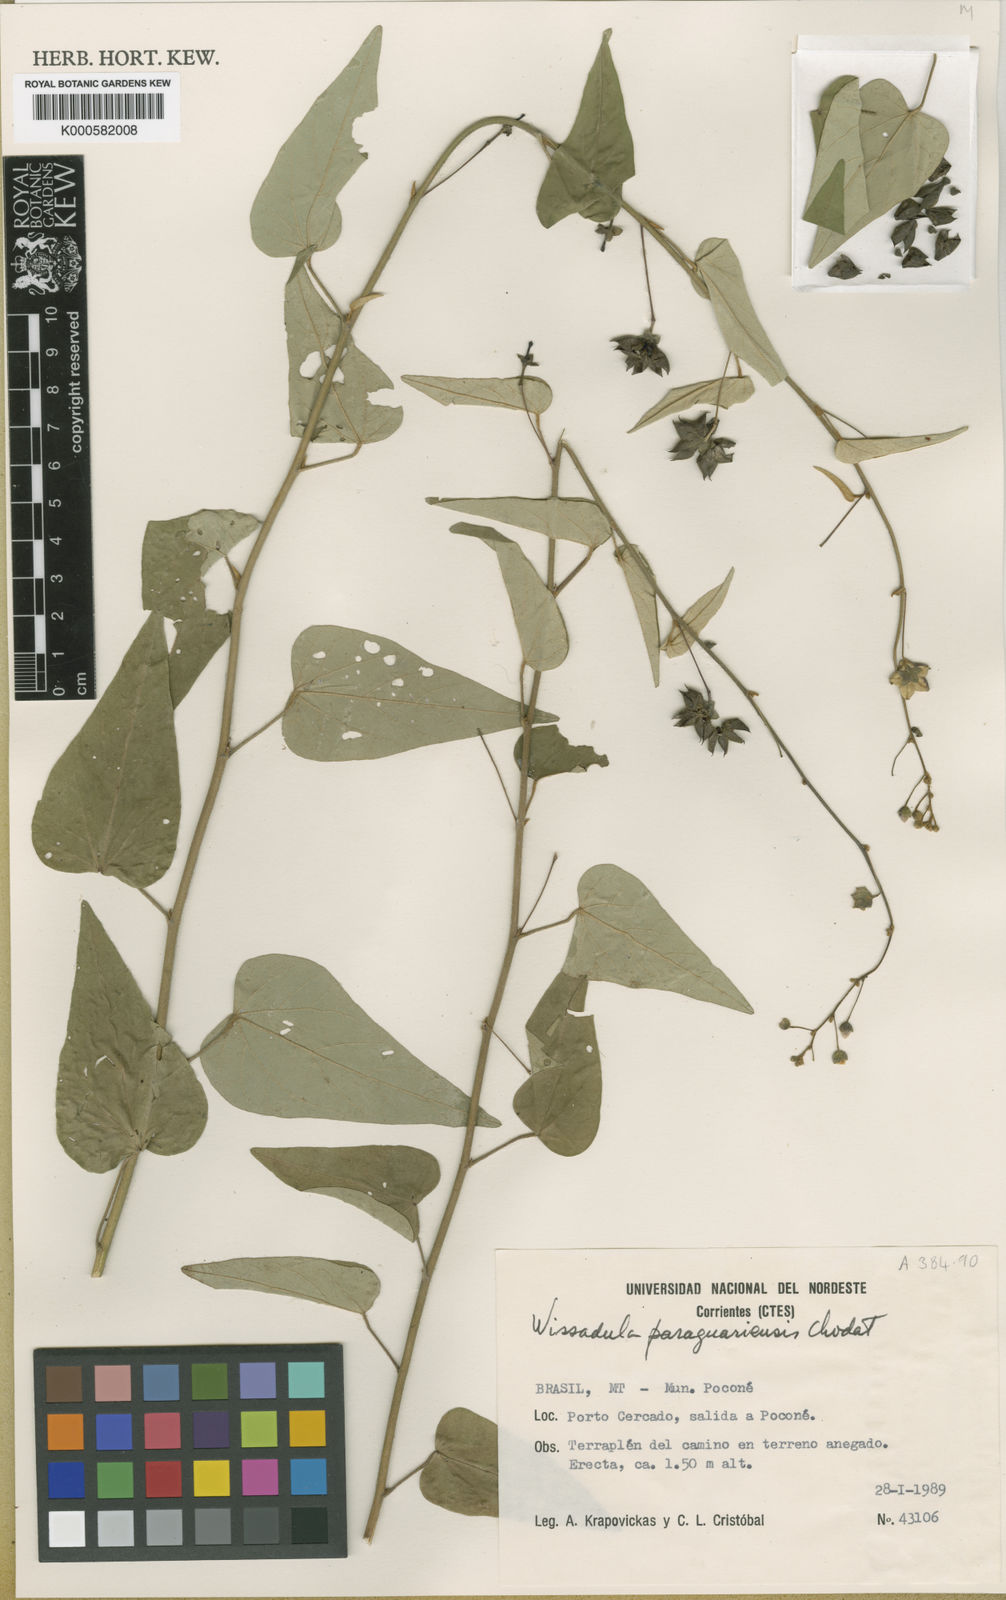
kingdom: Plantae
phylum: Tracheophyta
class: Magnoliopsida
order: Malvales
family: Malvaceae
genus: Wissadula
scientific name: Wissadula paraguariensis
